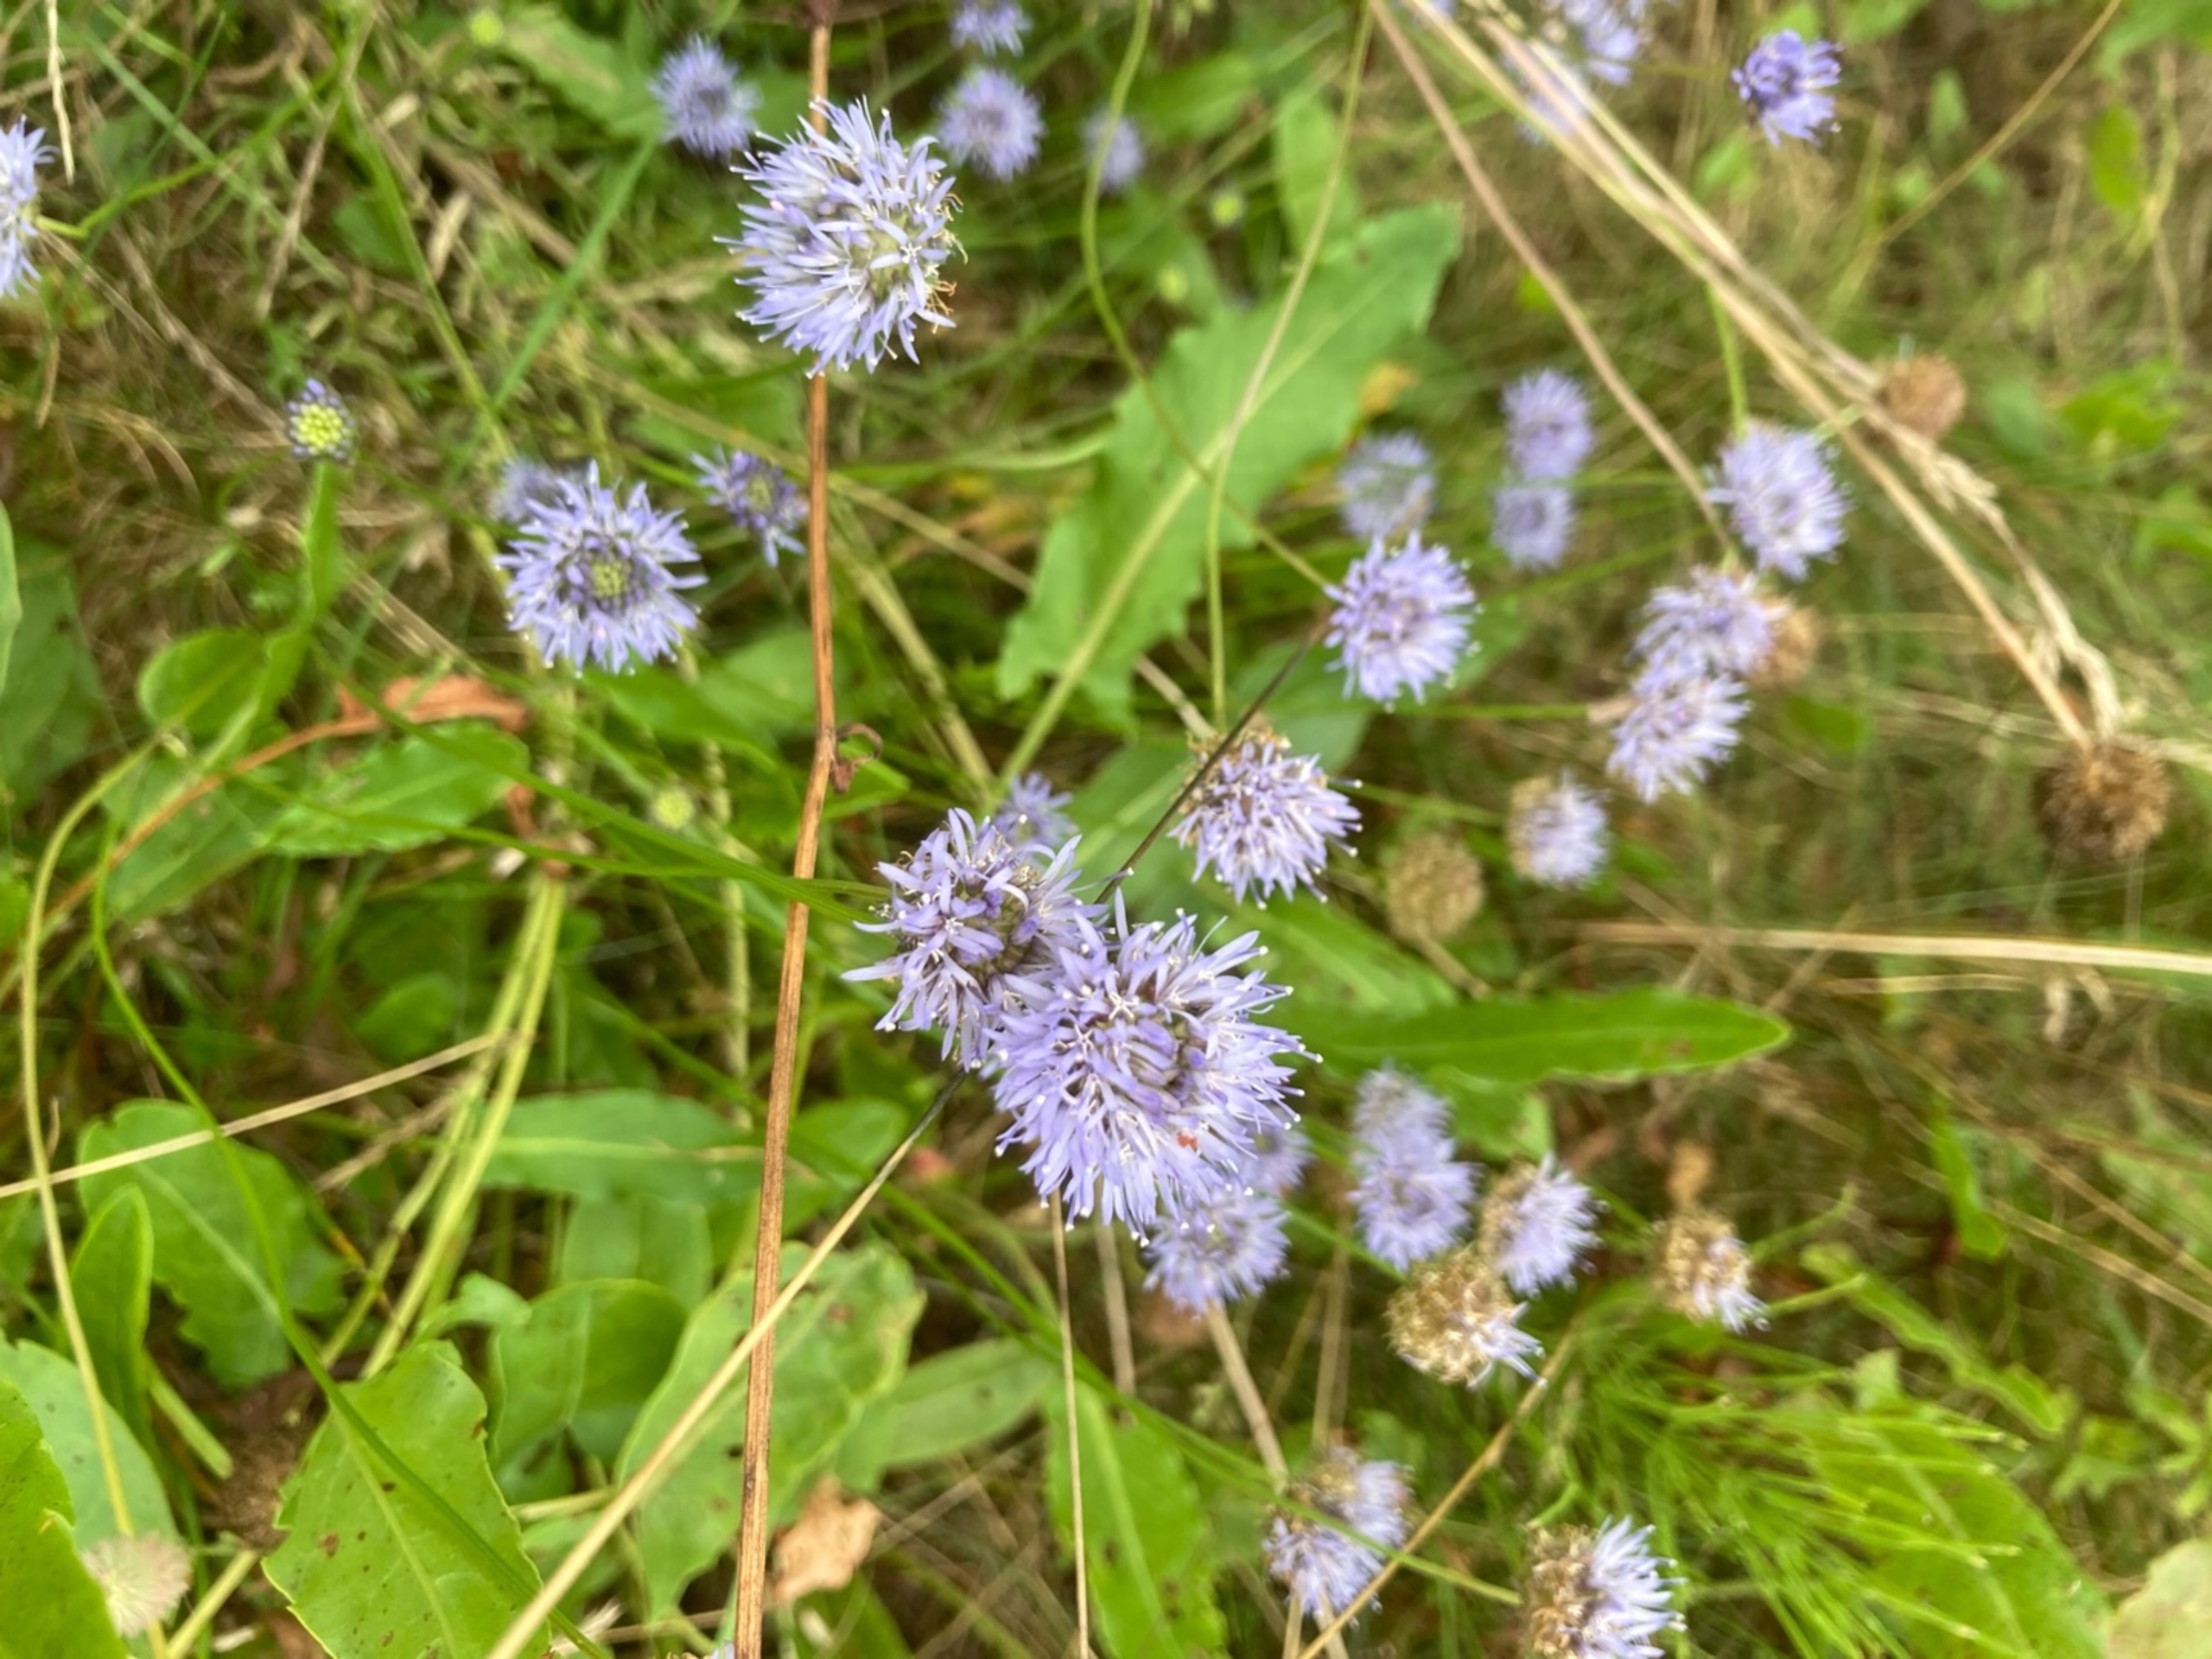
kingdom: Plantae
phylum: Tracheophyta
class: Magnoliopsida
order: Asterales
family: Campanulaceae
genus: Jasione
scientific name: Jasione montana
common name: Blåmunke
